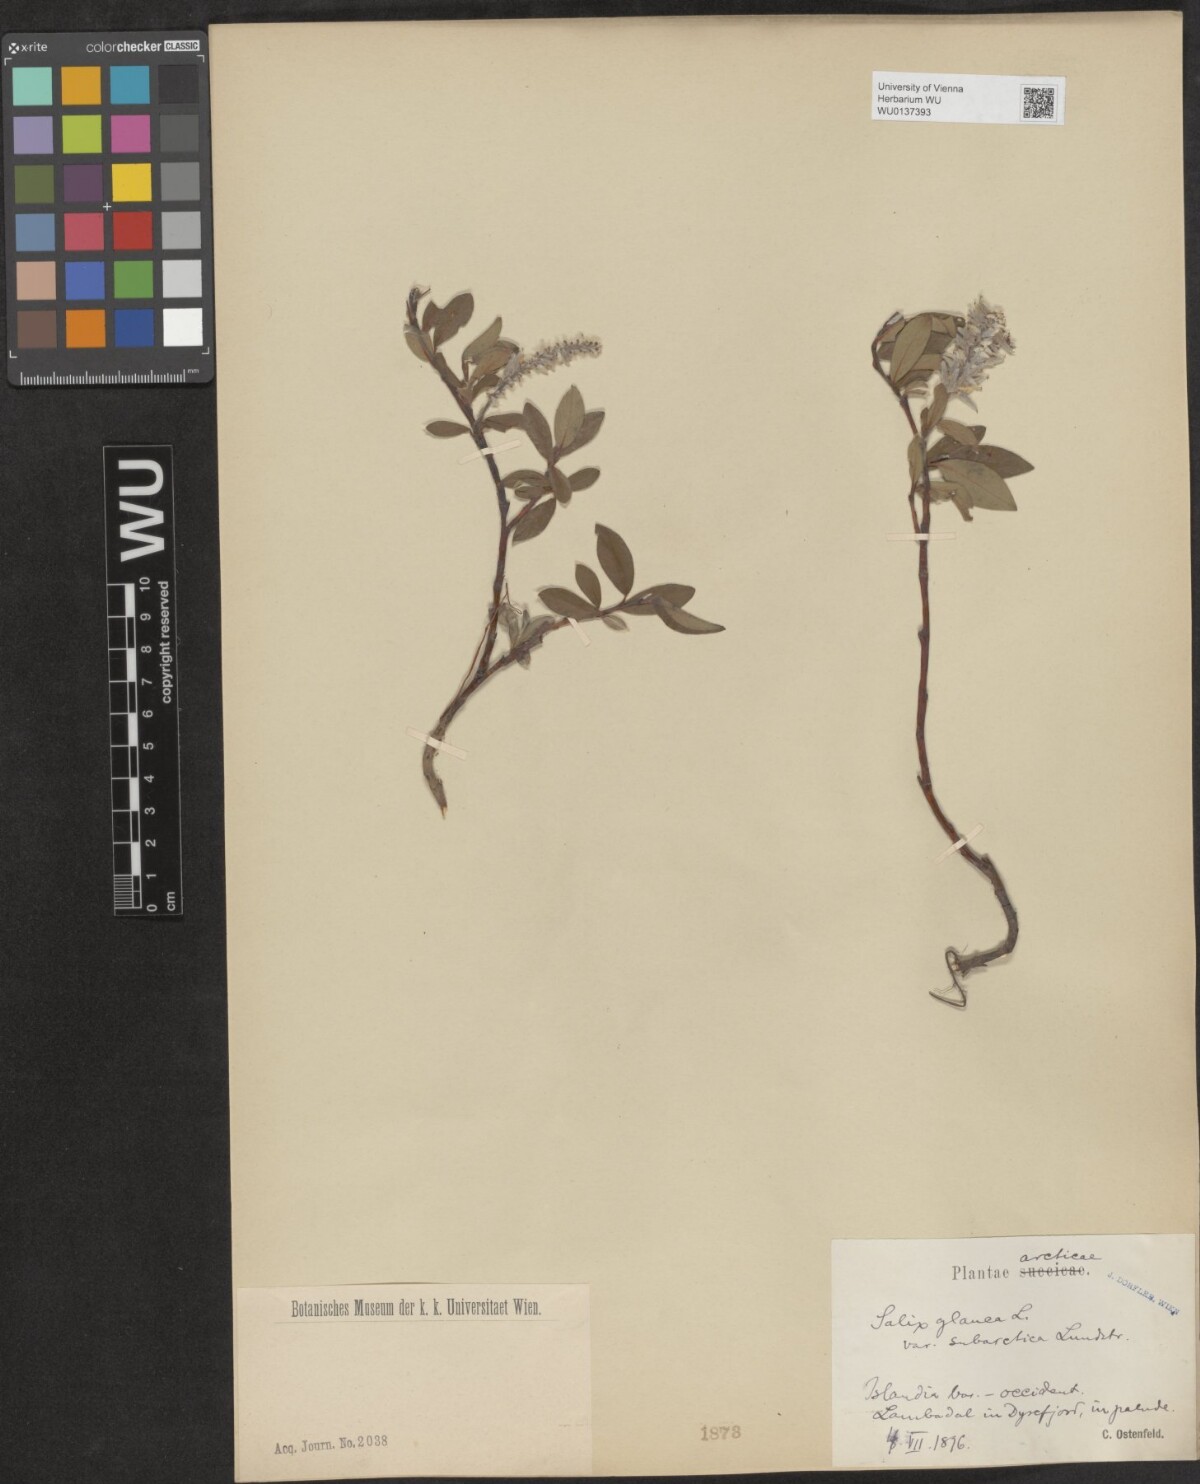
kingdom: Plantae
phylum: Tracheophyta
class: Magnoliopsida
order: Malpighiales
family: Salicaceae
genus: Salix
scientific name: Salix glauca
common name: Glaucous willow
